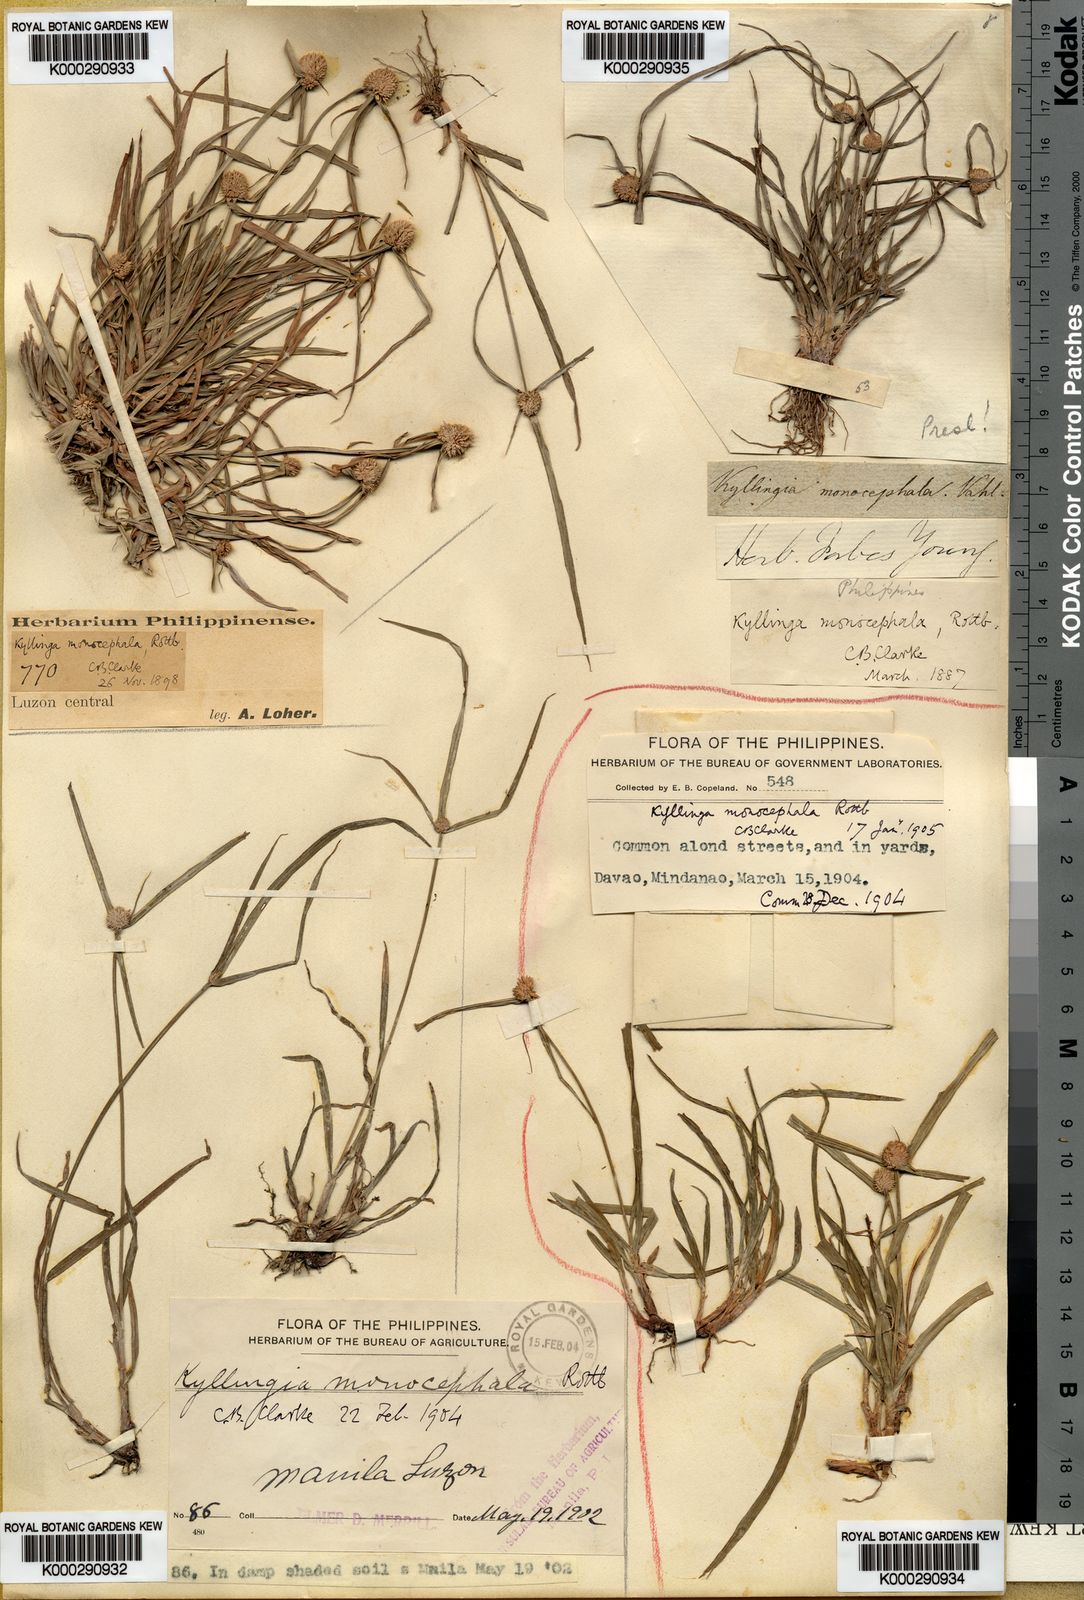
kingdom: Plantae
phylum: Tracheophyta
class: Liliopsida
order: Poales
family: Cyperaceae
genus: Cyperus
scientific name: Cyperus mindorensis
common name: Flatsedge
